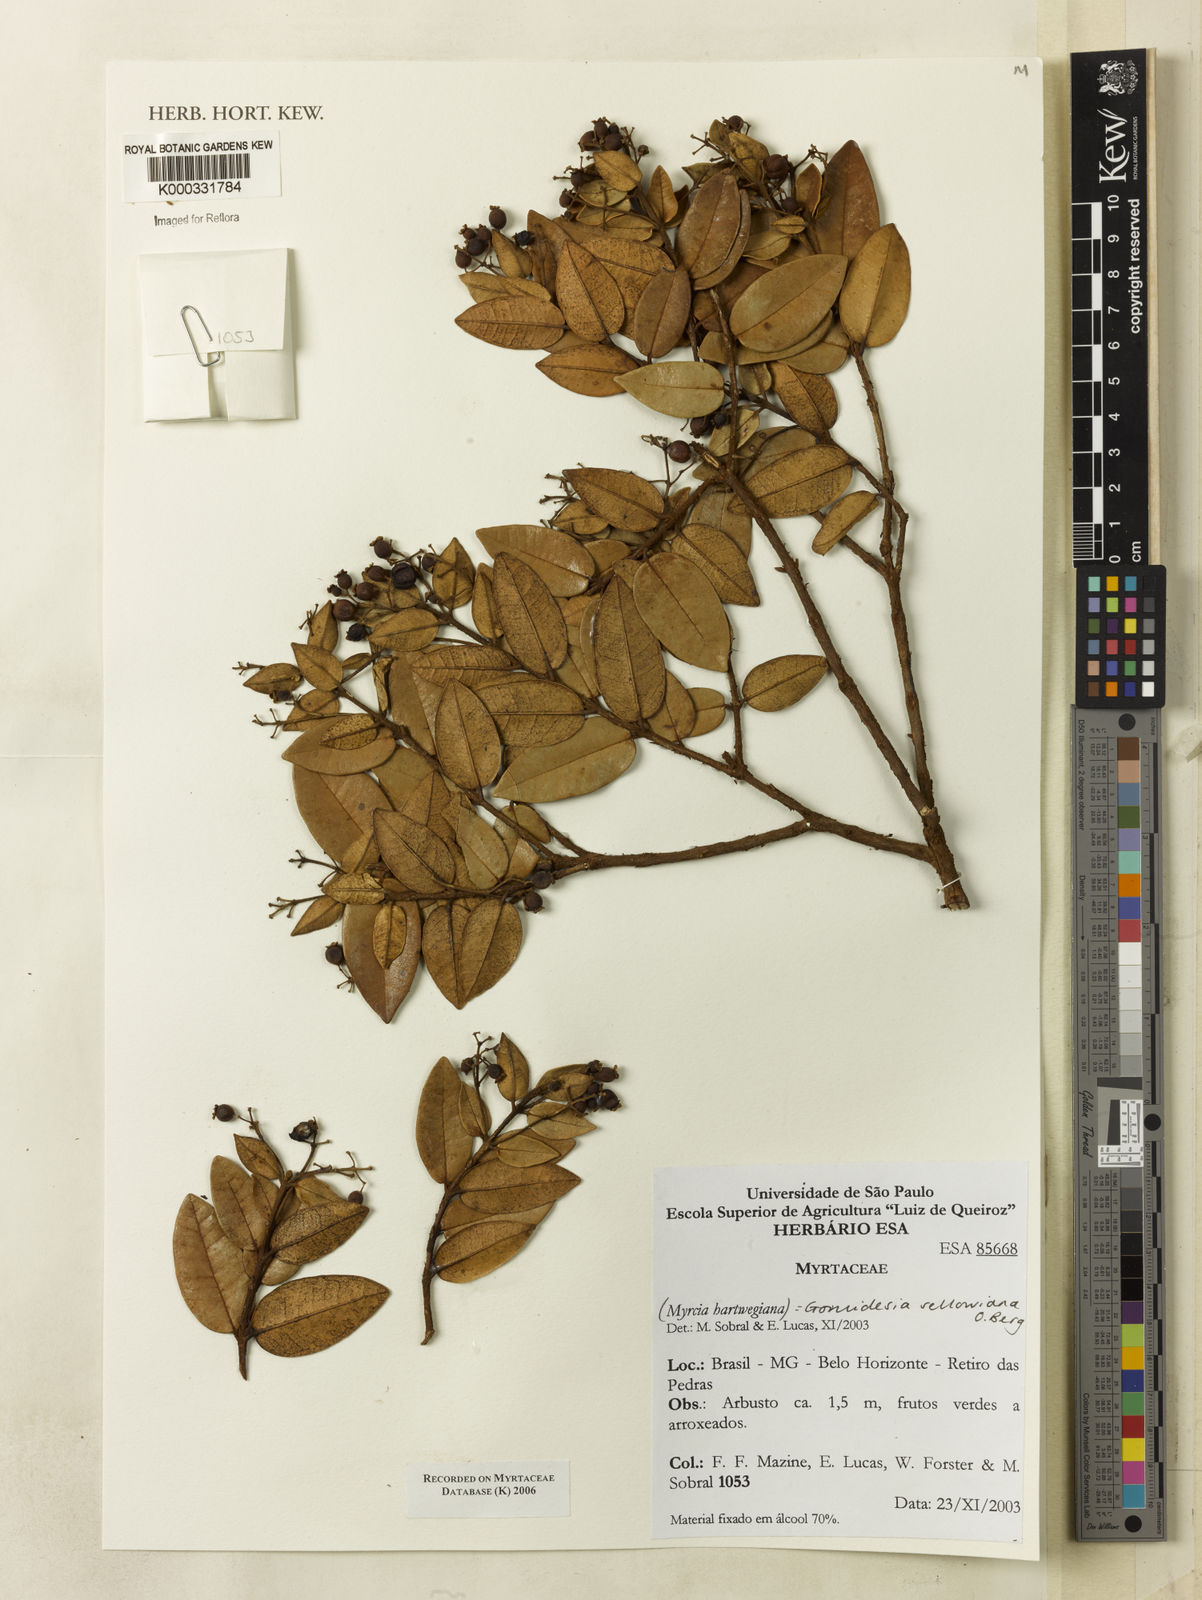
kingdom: Plantae
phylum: Tracheophyta
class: Magnoliopsida
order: Myrtales
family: Myrtaceae
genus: Myrcia
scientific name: Myrcia hartwegiana
